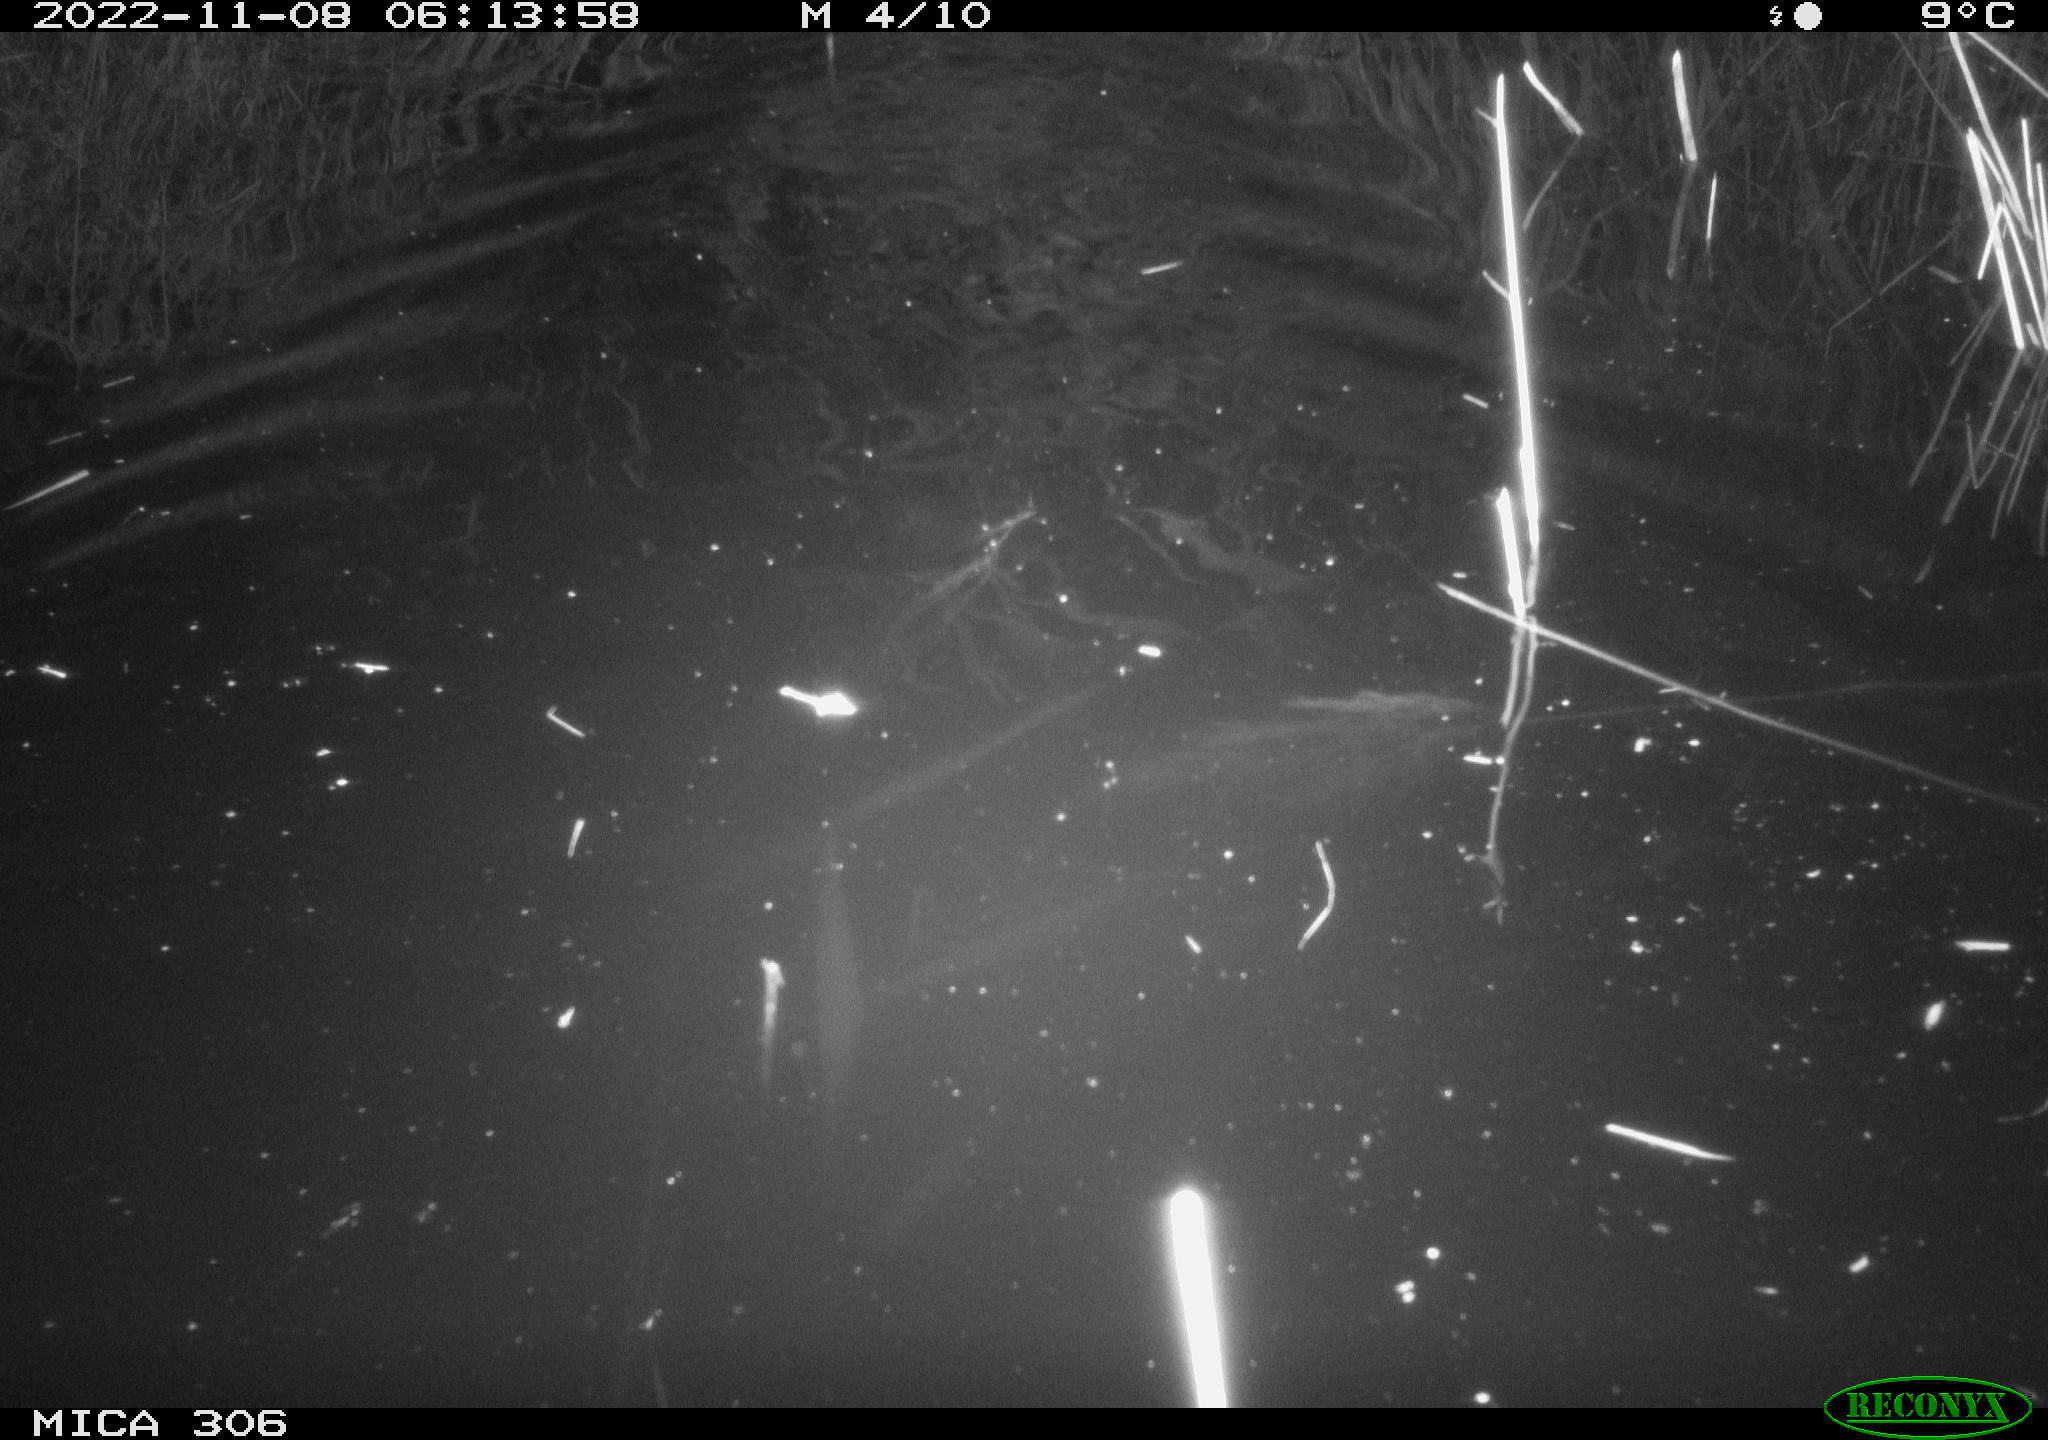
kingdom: Animalia
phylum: Chordata
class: Mammalia
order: Rodentia
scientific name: Rodentia
